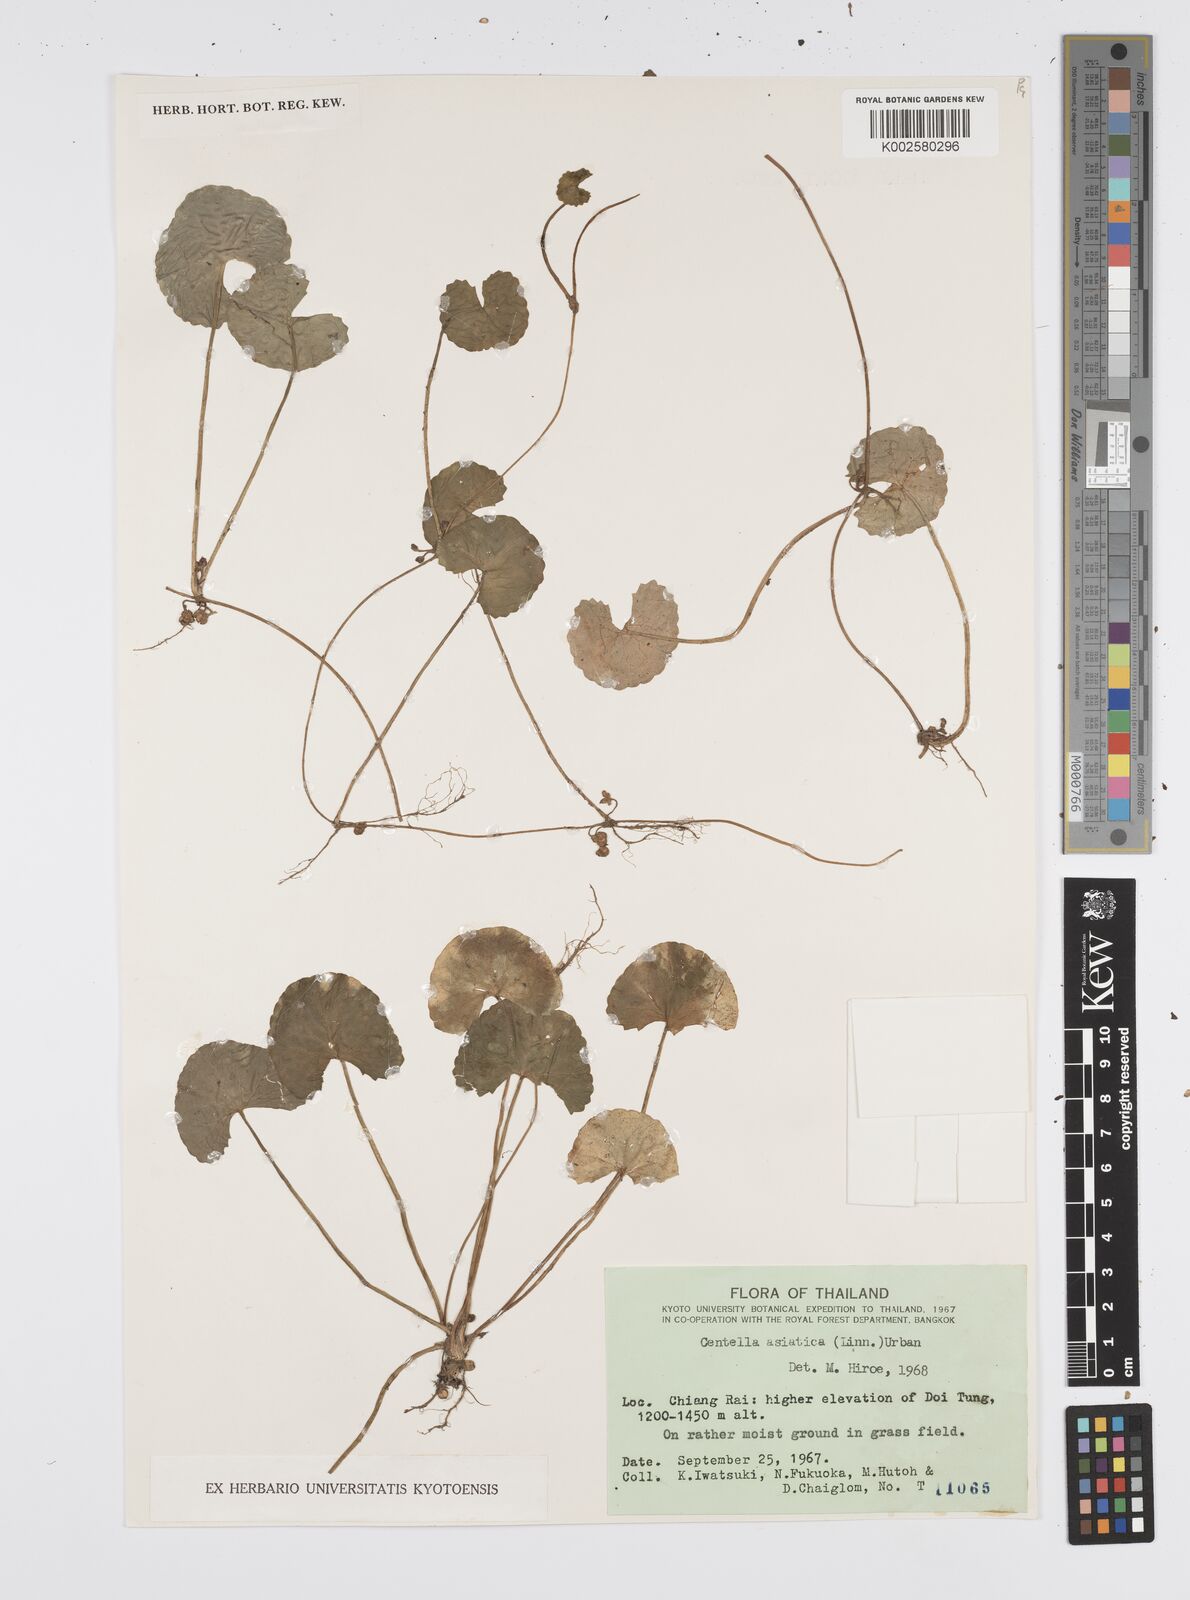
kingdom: Plantae
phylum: Tracheophyta
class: Magnoliopsida
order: Apiales
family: Apiaceae
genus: Centella
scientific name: Centella asiatica
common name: Spadeleaf
